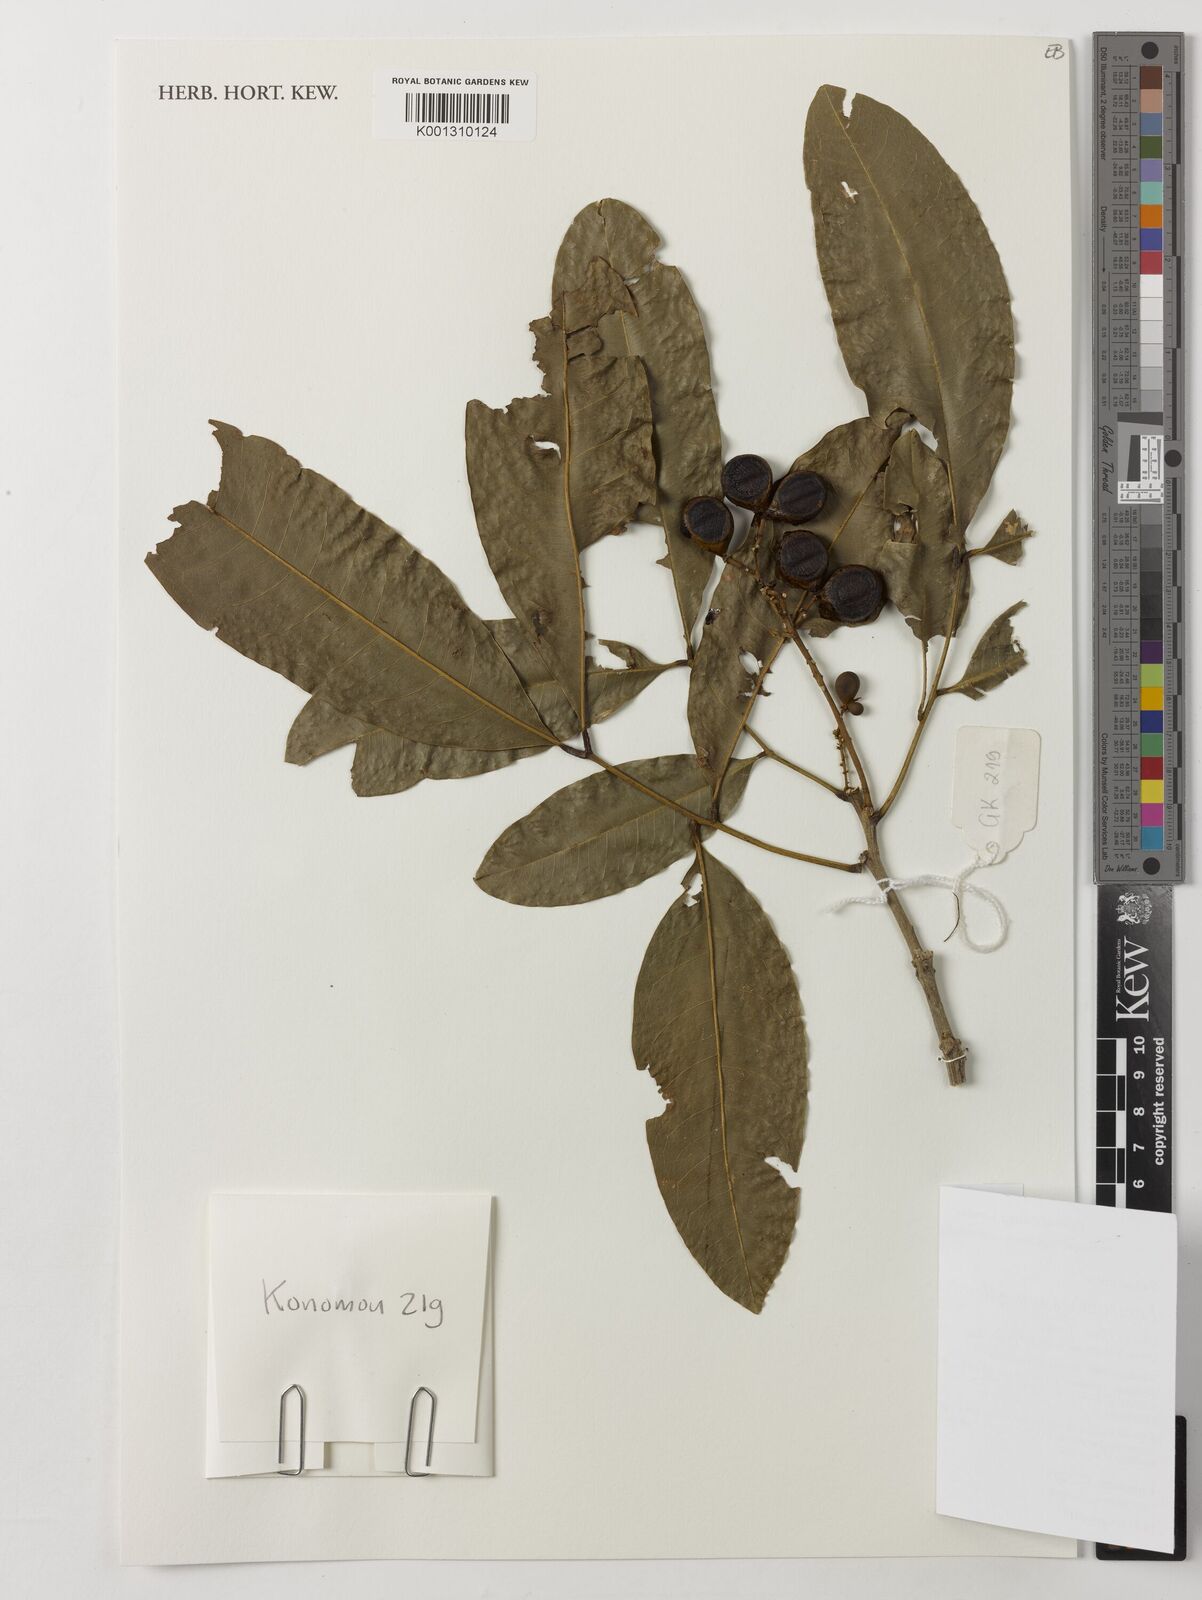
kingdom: Plantae
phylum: Tracheophyta
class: Magnoliopsida
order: Sapindales
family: Sapindaceae
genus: Lepisanthes
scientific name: Lepisanthes senegalensis
